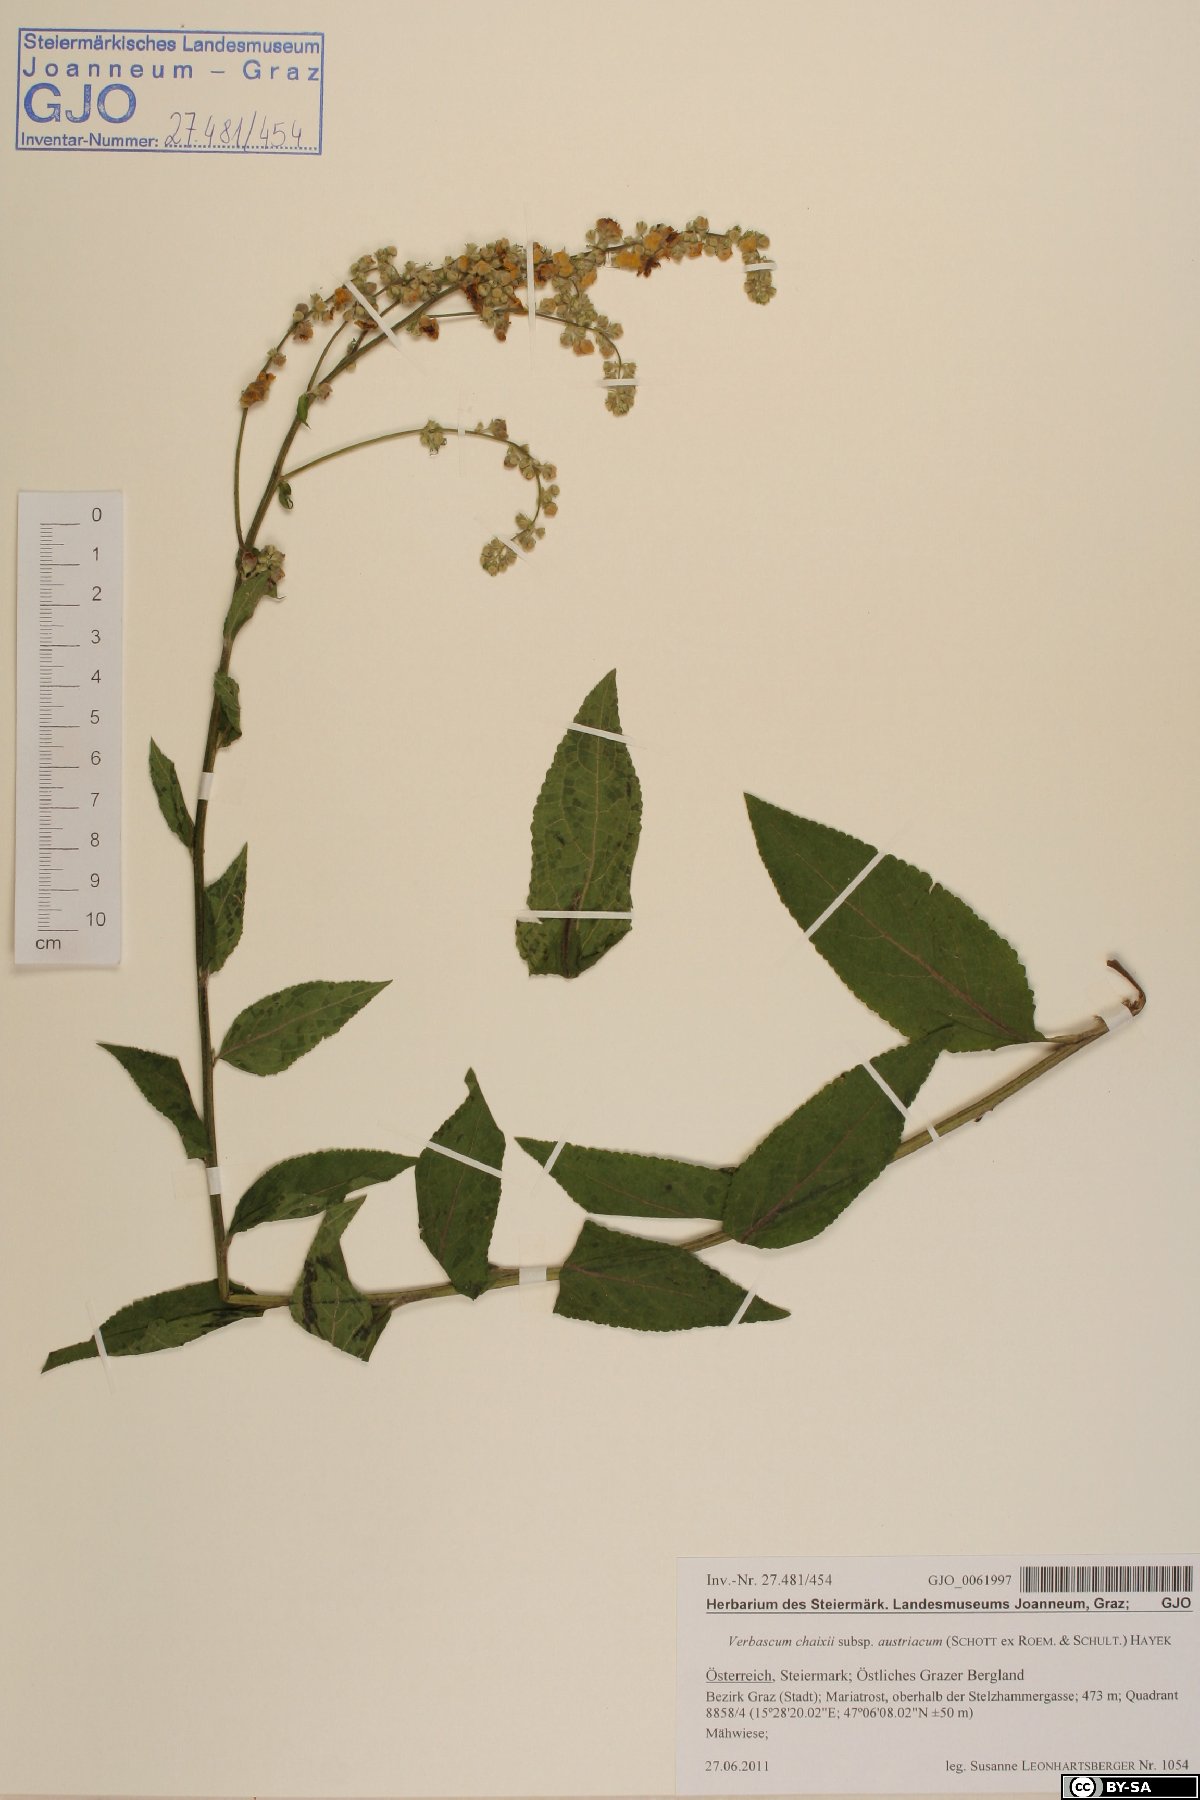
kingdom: Plantae
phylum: Tracheophyta
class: Magnoliopsida
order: Lamiales
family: Scrophulariaceae
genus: Verbascum
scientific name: Verbascum chaixii
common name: Nettle-leaved mullein
